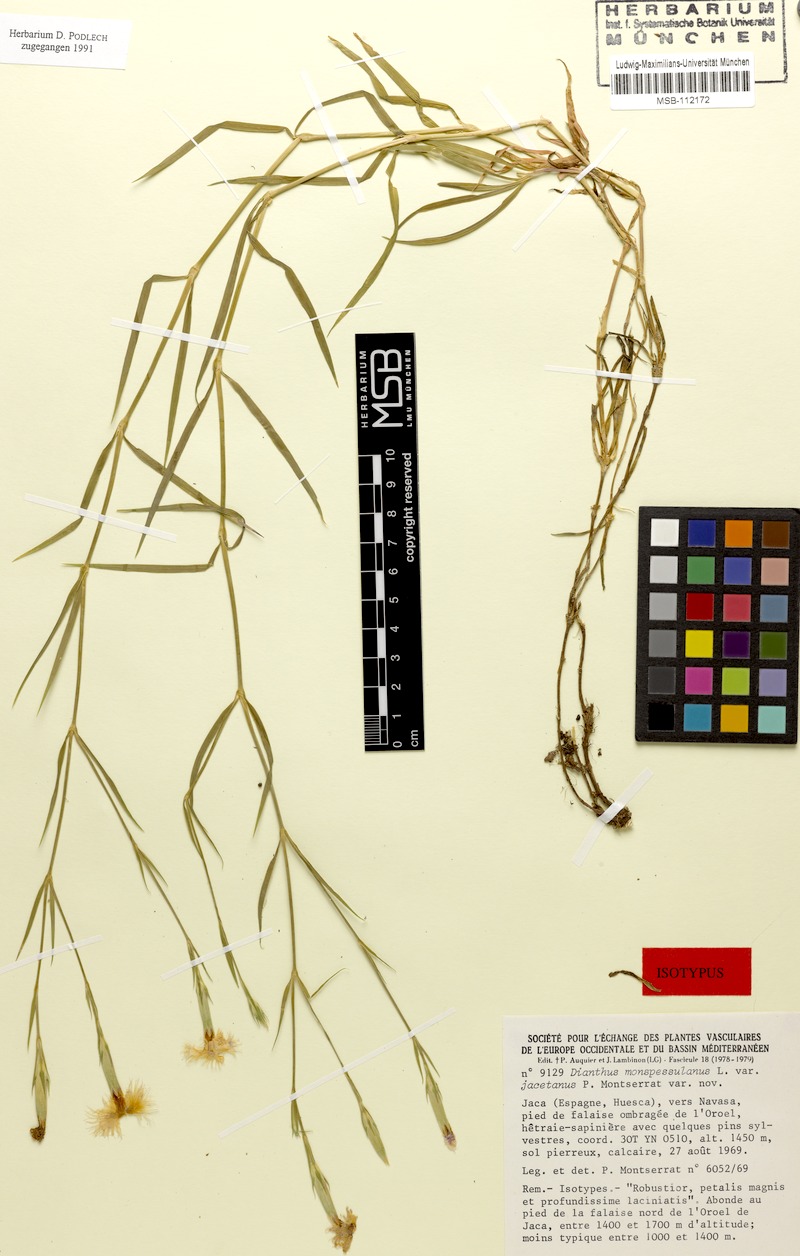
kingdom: Plantae
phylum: Tracheophyta
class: Magnoliopsida
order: Caryophyllales
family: Caryophyllaceae
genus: Dianthus
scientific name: Dianthus hyssopifolius
